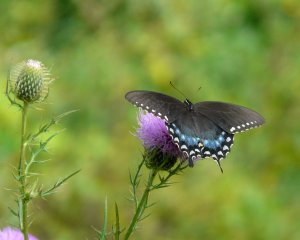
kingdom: Animalia
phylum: Arthropoda
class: Insecta
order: Lepidoptera
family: Papilionidae
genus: Pterourus
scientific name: Pterourus troilus
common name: Spicebush Swallowtail
